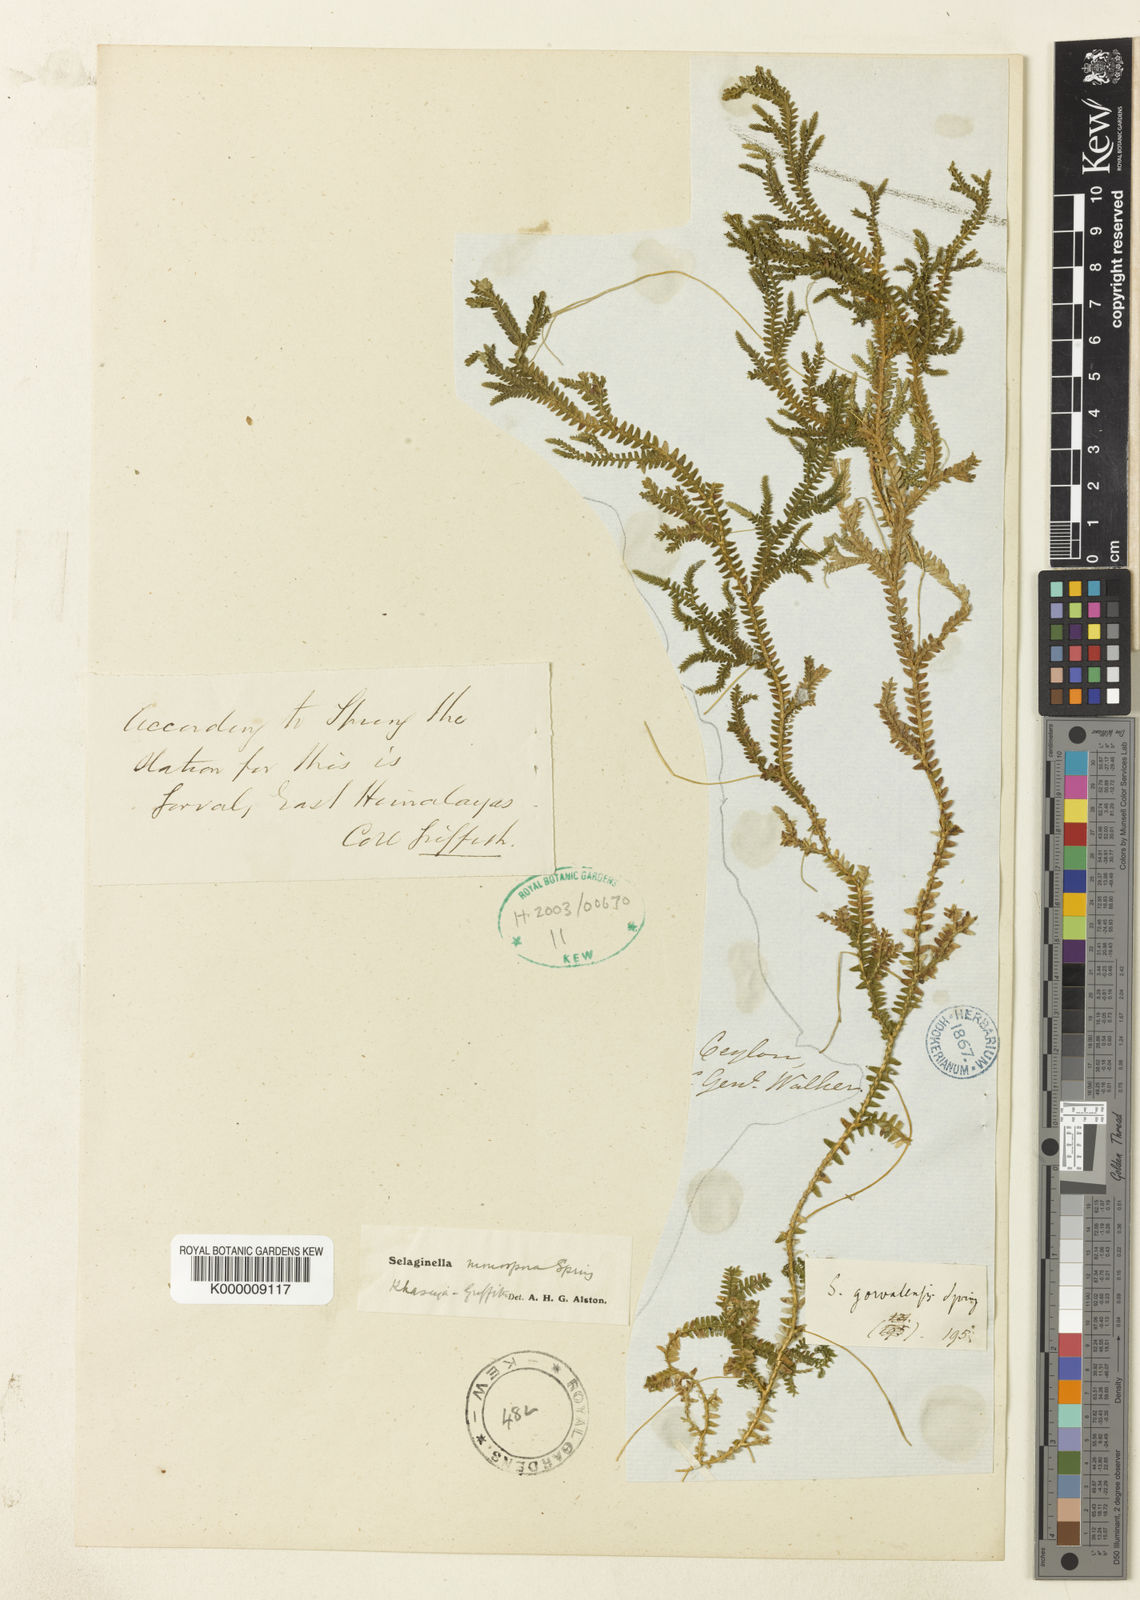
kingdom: Plantae
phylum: Tracheophyta
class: Lycopodiopsida
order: Selaginellales
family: Selaginellaceae
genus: Selaginella
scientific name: Selaginella monospora
